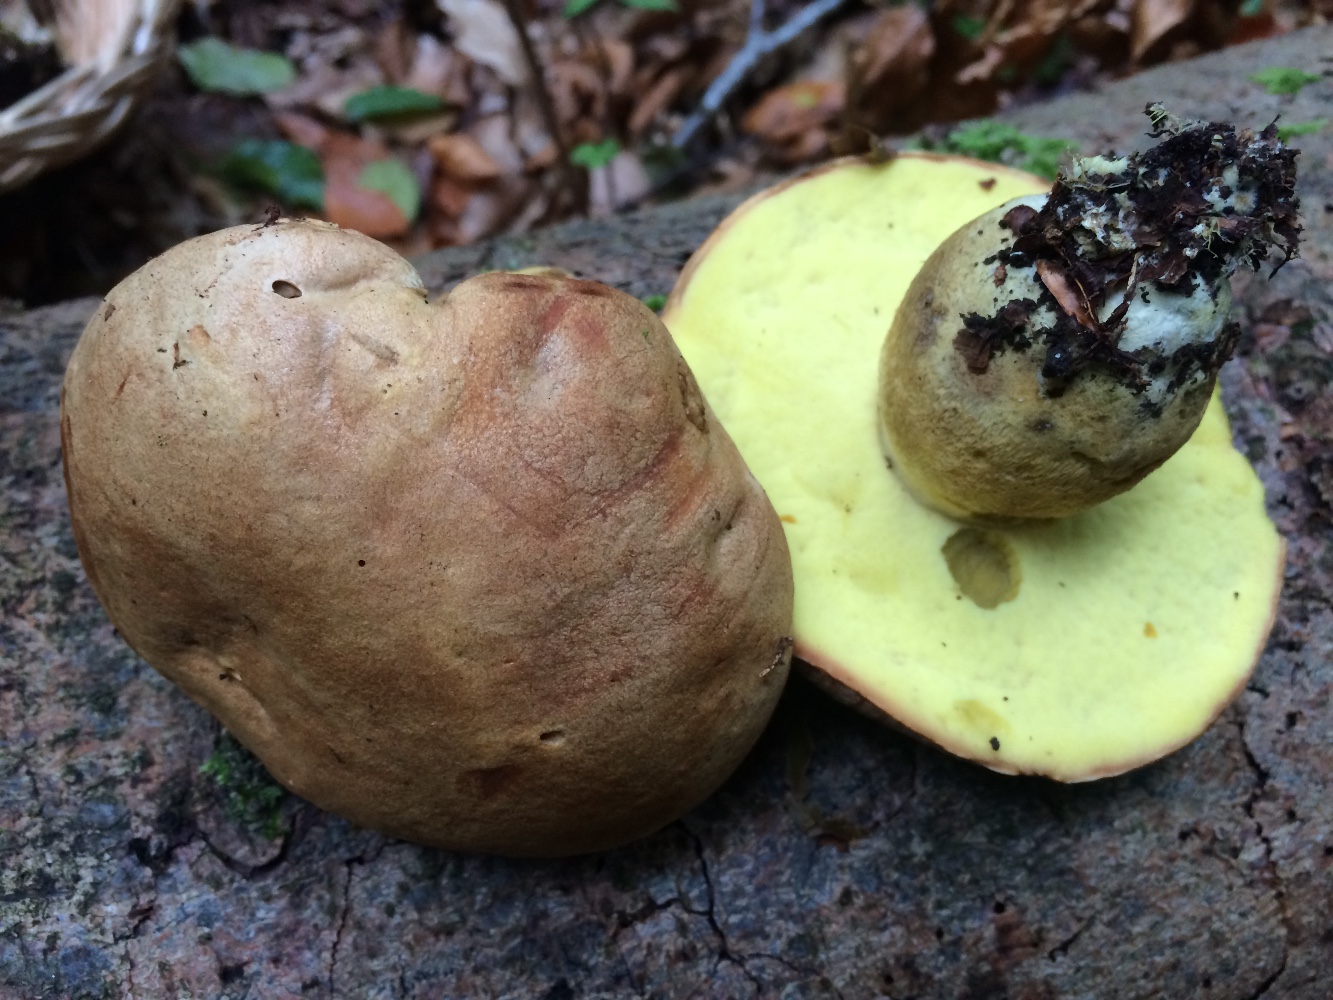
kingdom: Fungi
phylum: Basidiomycota
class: Agaricomycetes
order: Boletales
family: Boletaceae
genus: Butyriboletus
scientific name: Butyriboletus appendiculatus
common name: tenstokket rørhat
